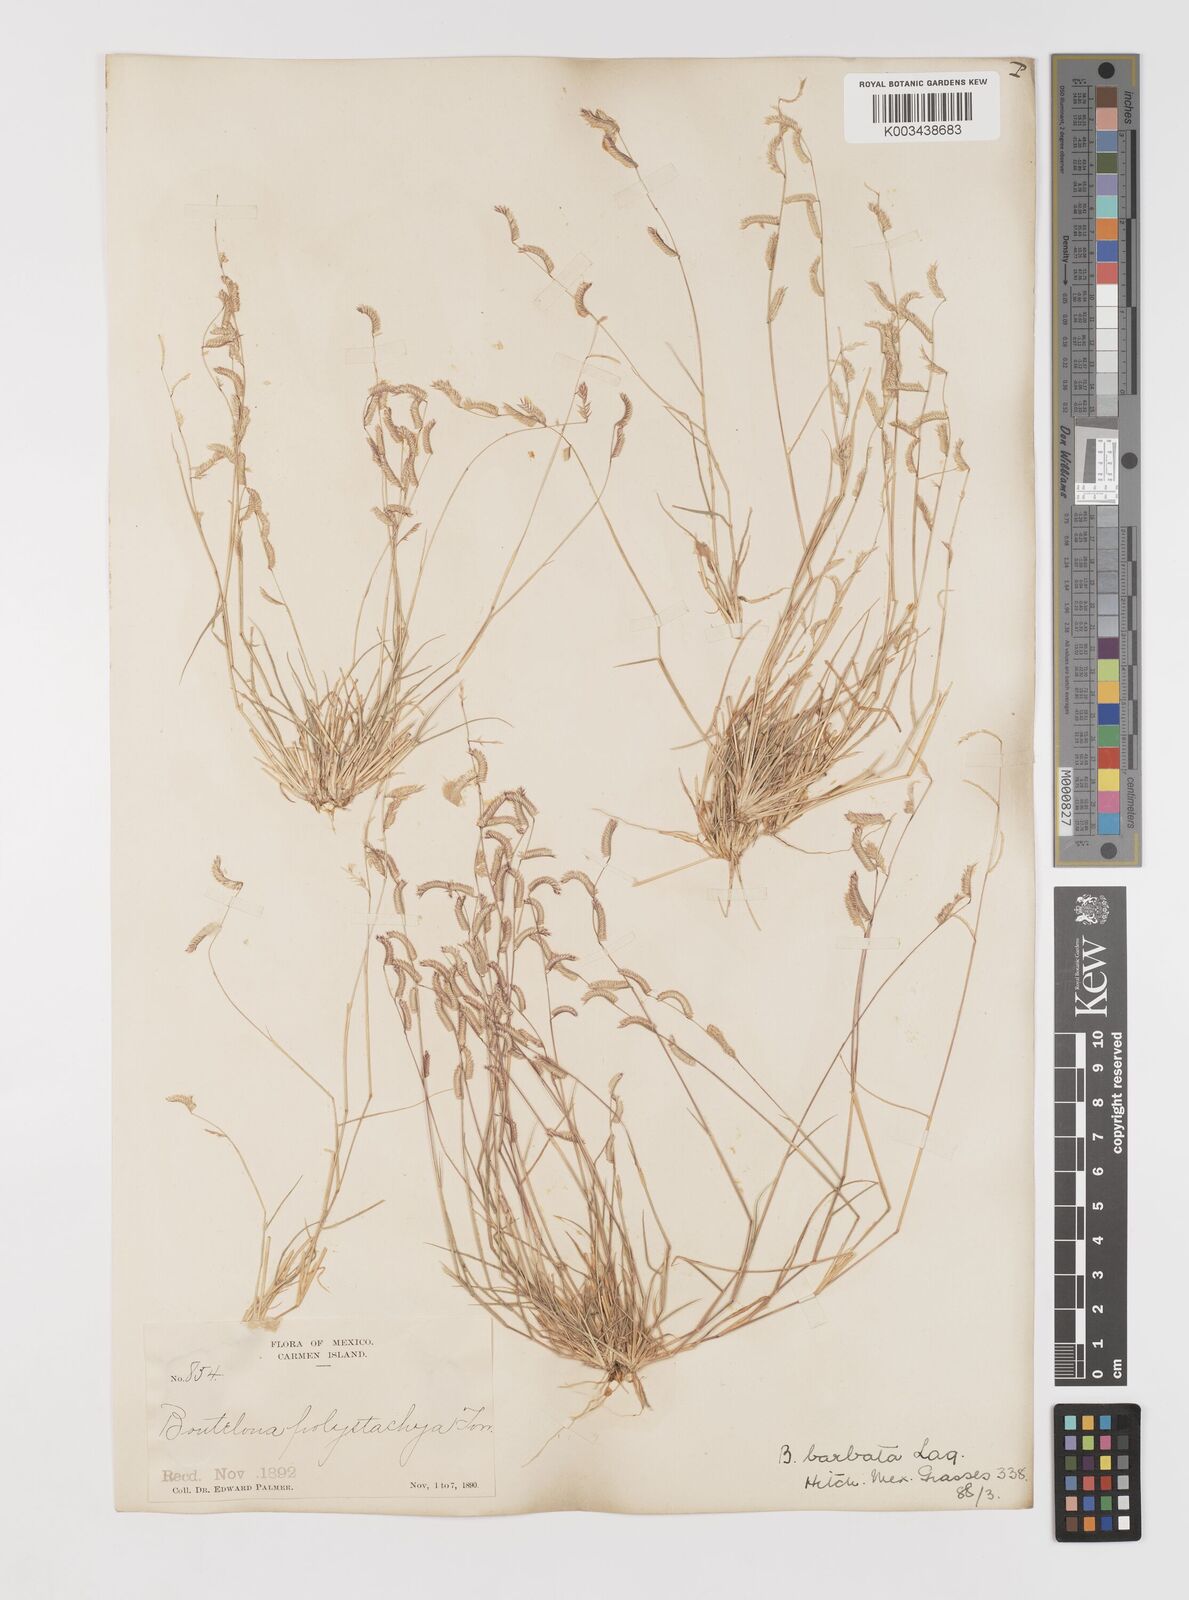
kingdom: Plantae
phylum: Tracheophyta
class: Liliopsida
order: Poales
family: Poaceae
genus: Bouteloua
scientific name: Bouteloua
